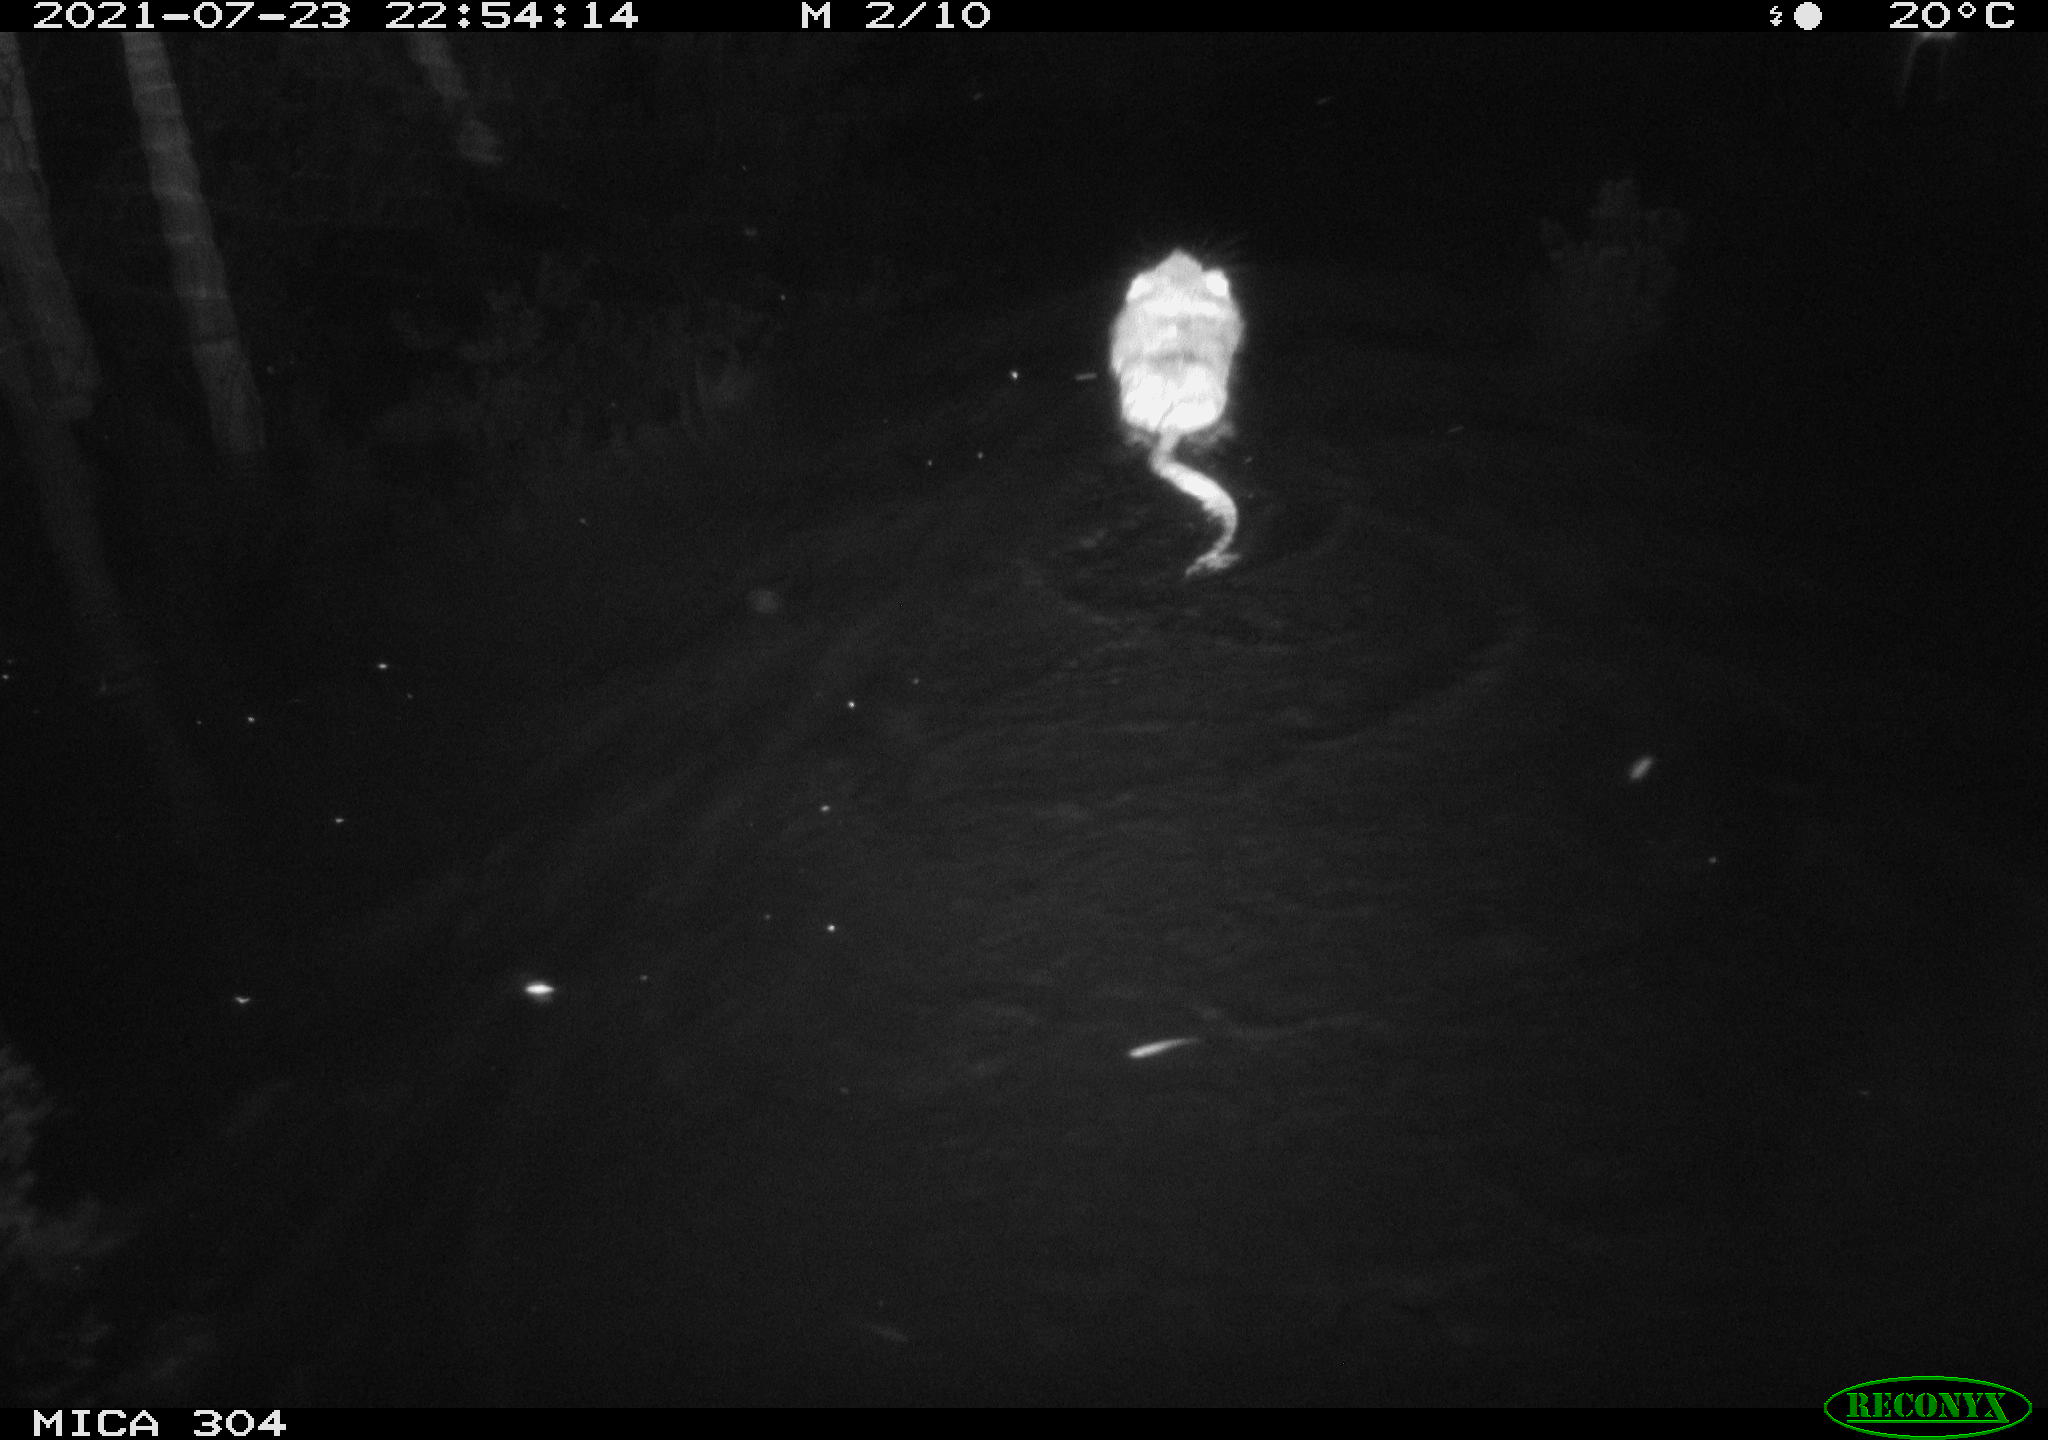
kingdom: Animalia
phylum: Chordata
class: Mammalia
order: Rodentia
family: Cricetidae
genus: Ondatra
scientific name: Ondatra zibethicus
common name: Muskrat
